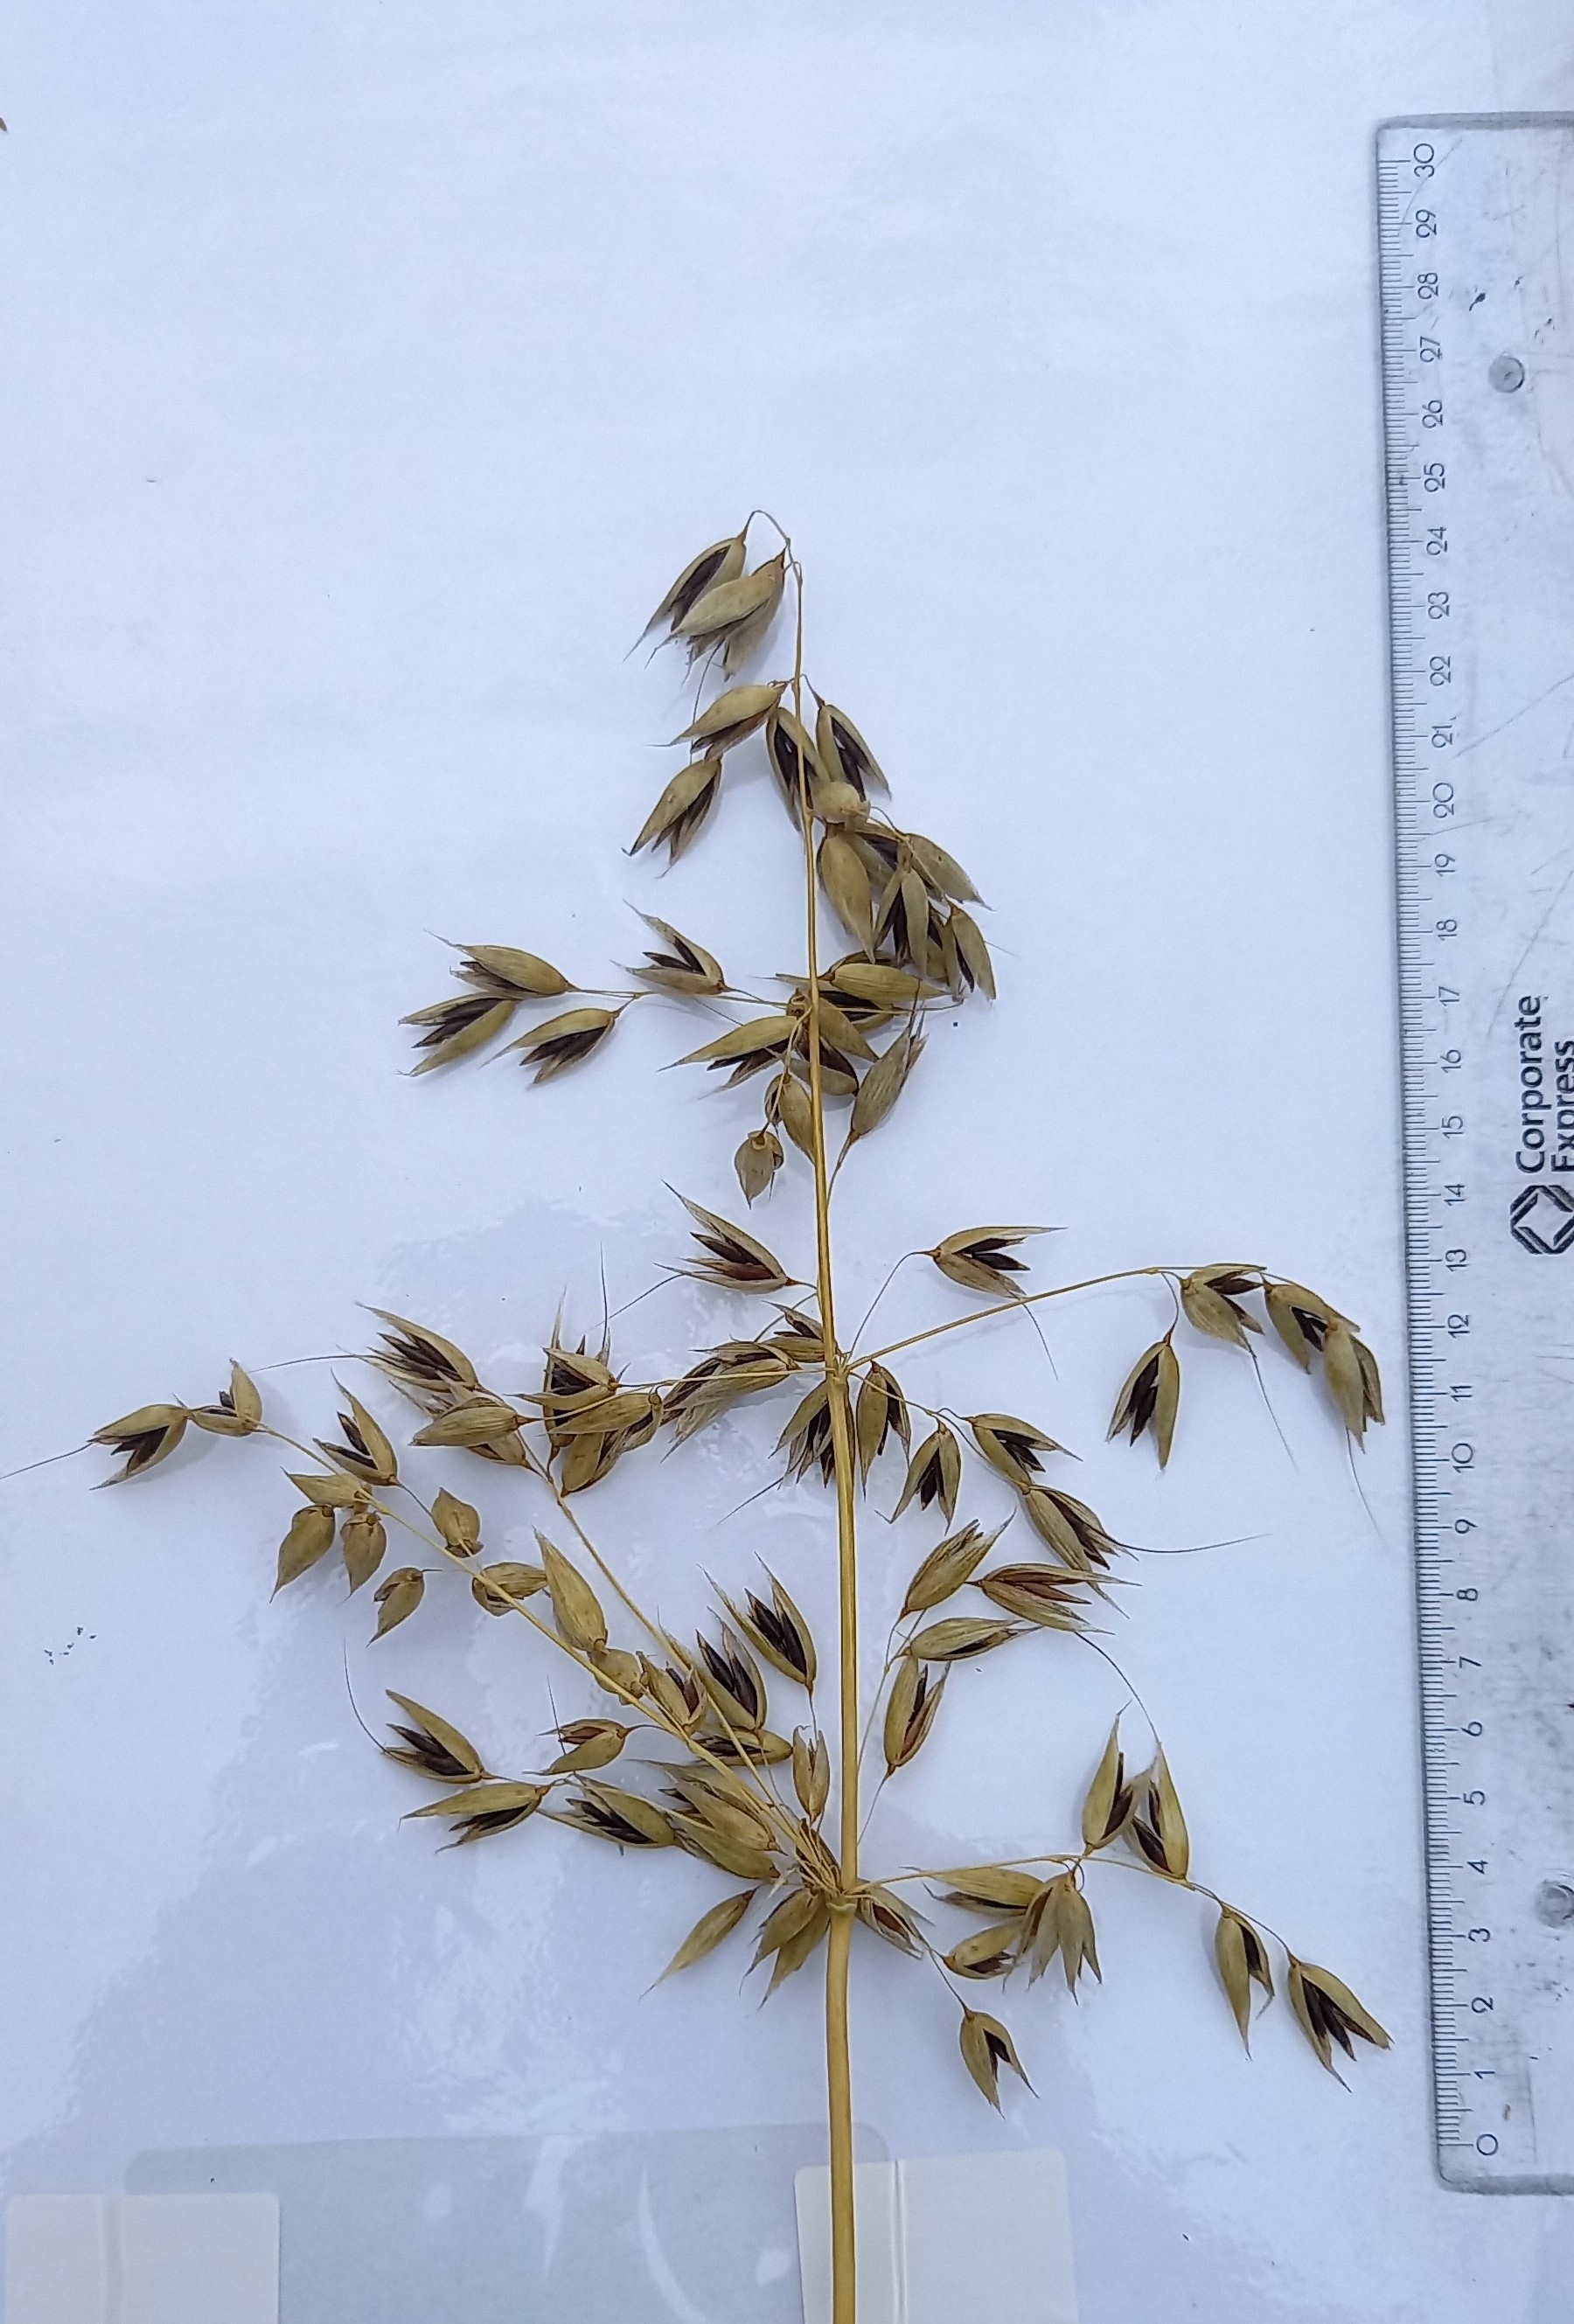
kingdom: Plantae
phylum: Tracheophyta
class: Liliopsida
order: Poales
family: Poaceae
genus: Avena
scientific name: Avena sativa
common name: Oat
